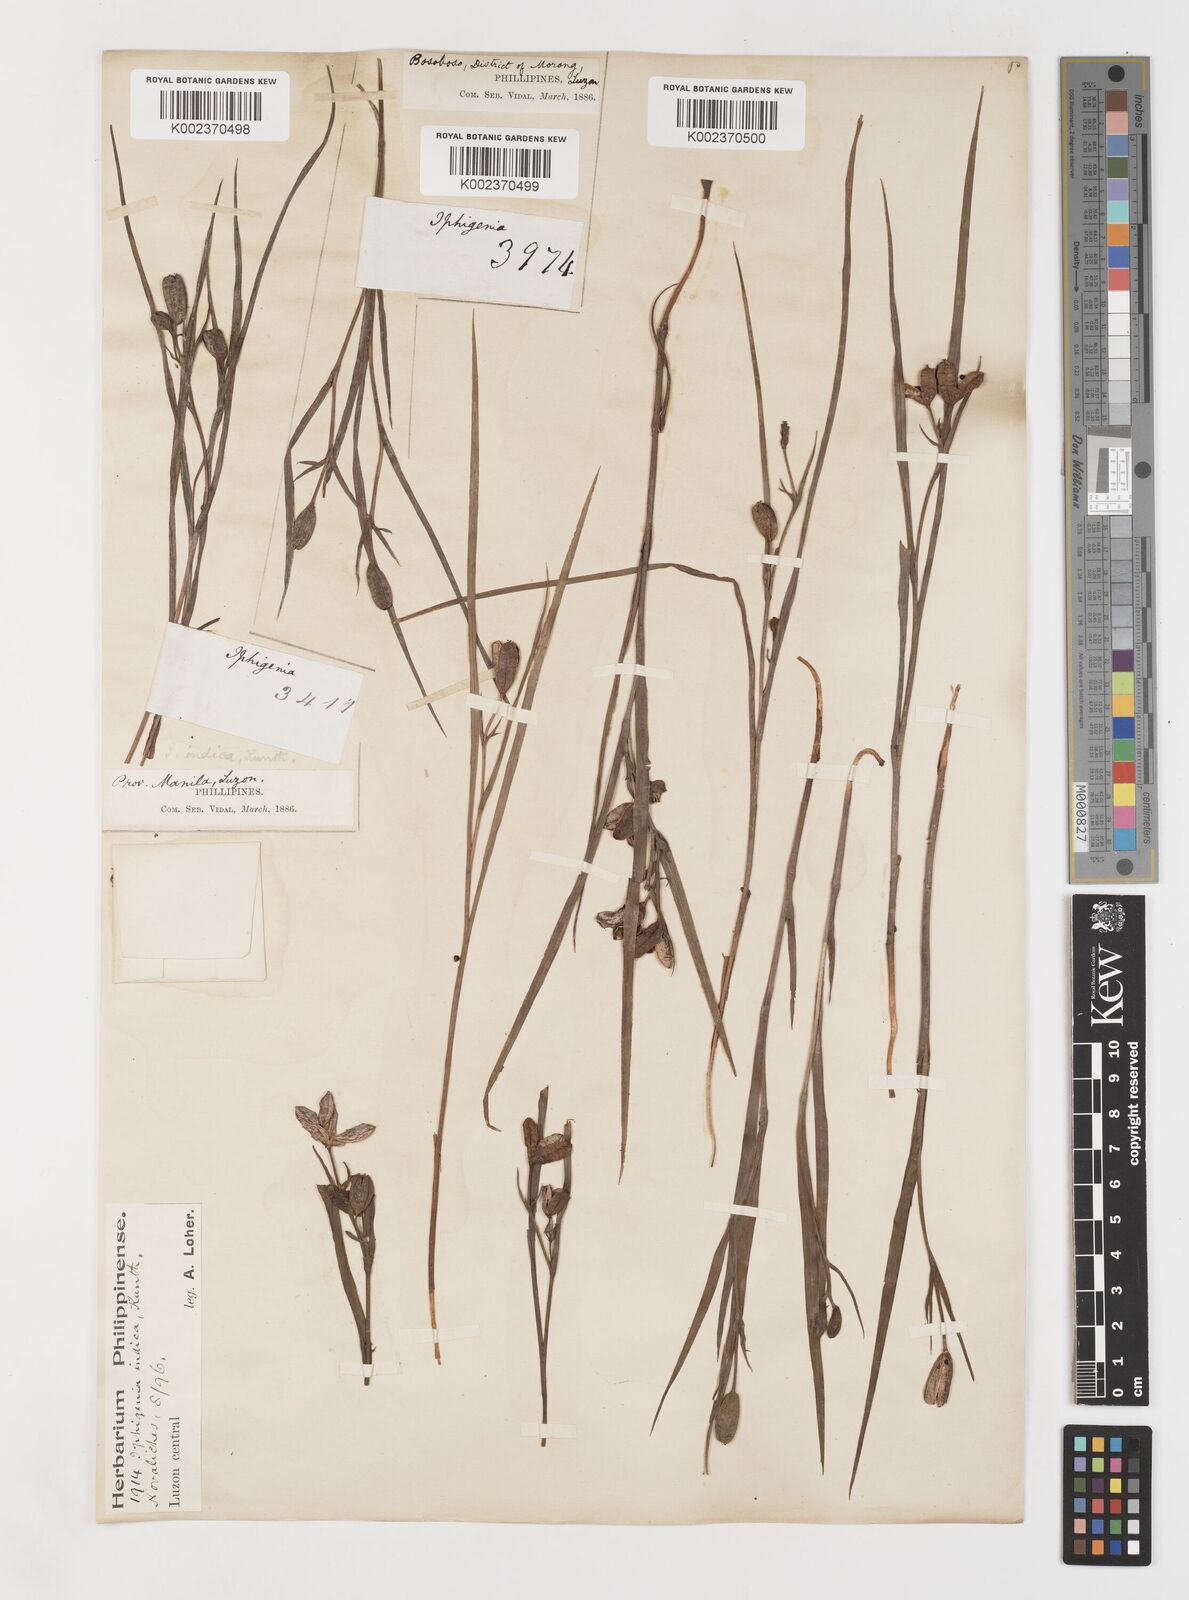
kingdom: Plantae
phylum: Tracheophyta
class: Liliopsida
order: Liliales
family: Colchicaceae
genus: Iphigenia
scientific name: Iphigenia indica
